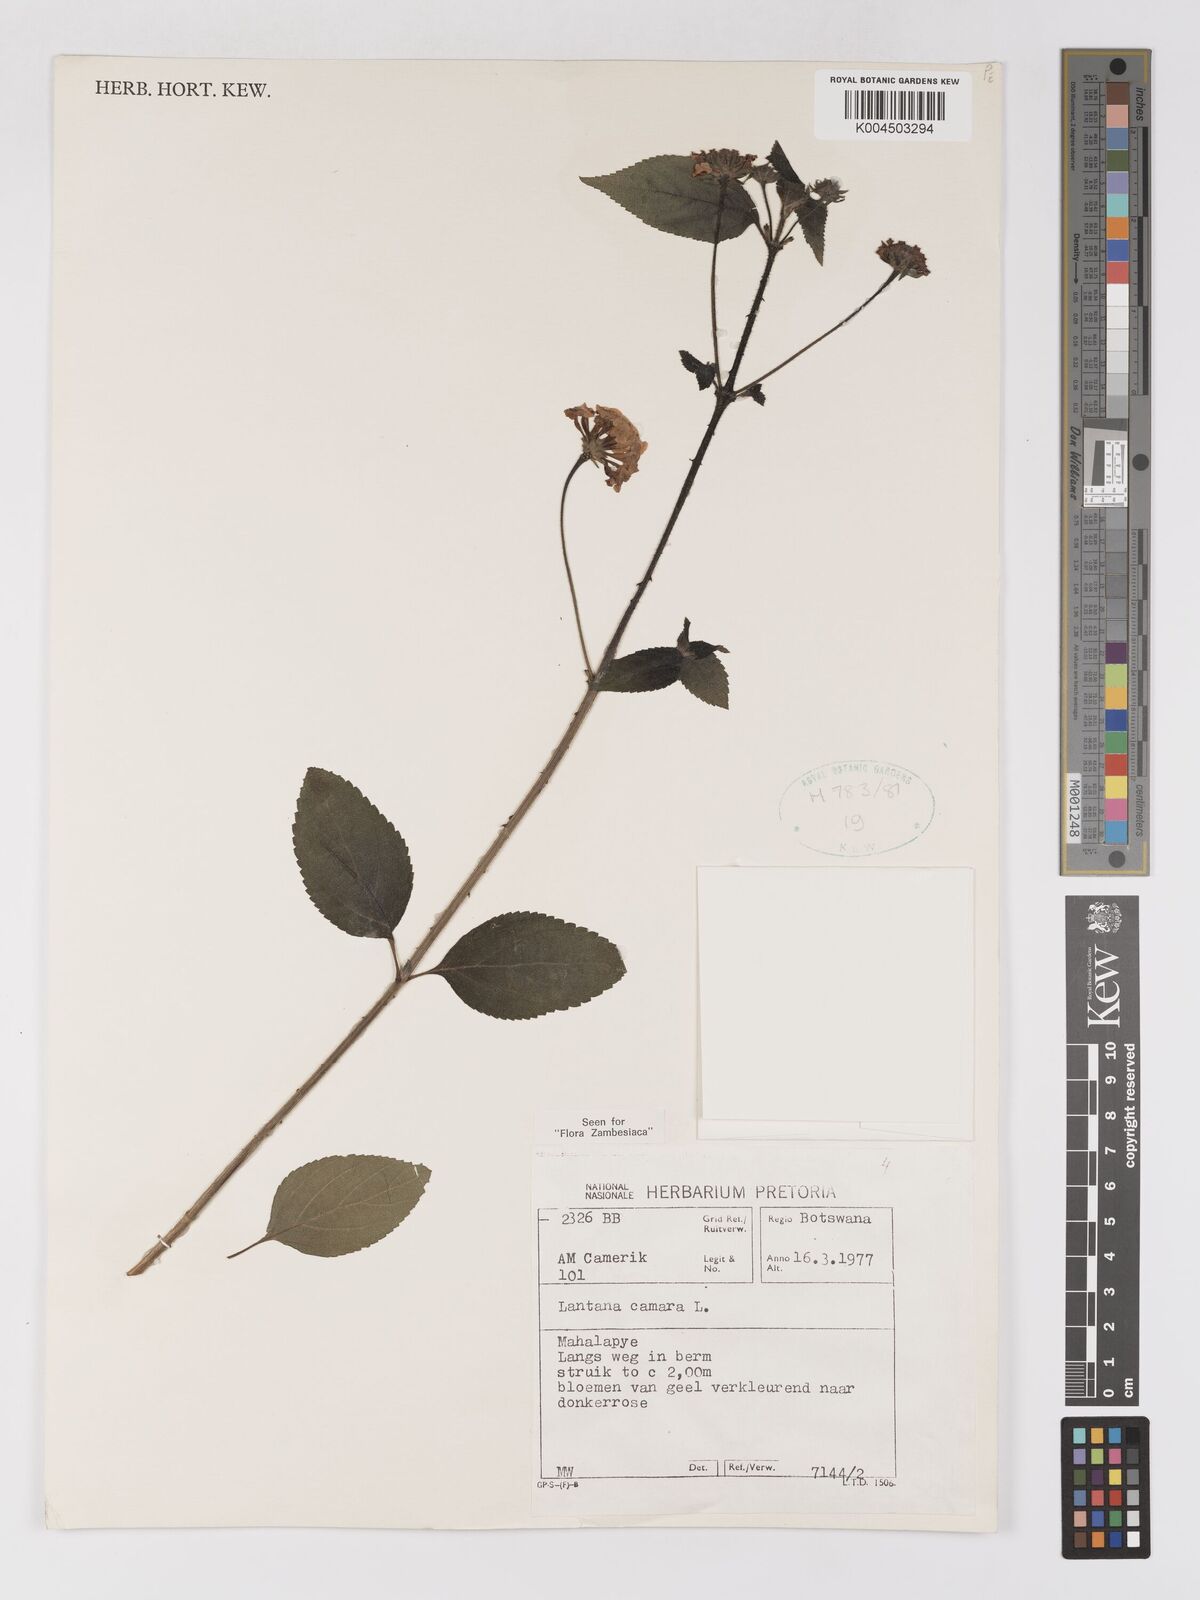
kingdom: Plantae
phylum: Tracheophyta
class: Magnoliopsida
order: Lamiales
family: Verbenaceae
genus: Lantana
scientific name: Lantana camara
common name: Lantana
